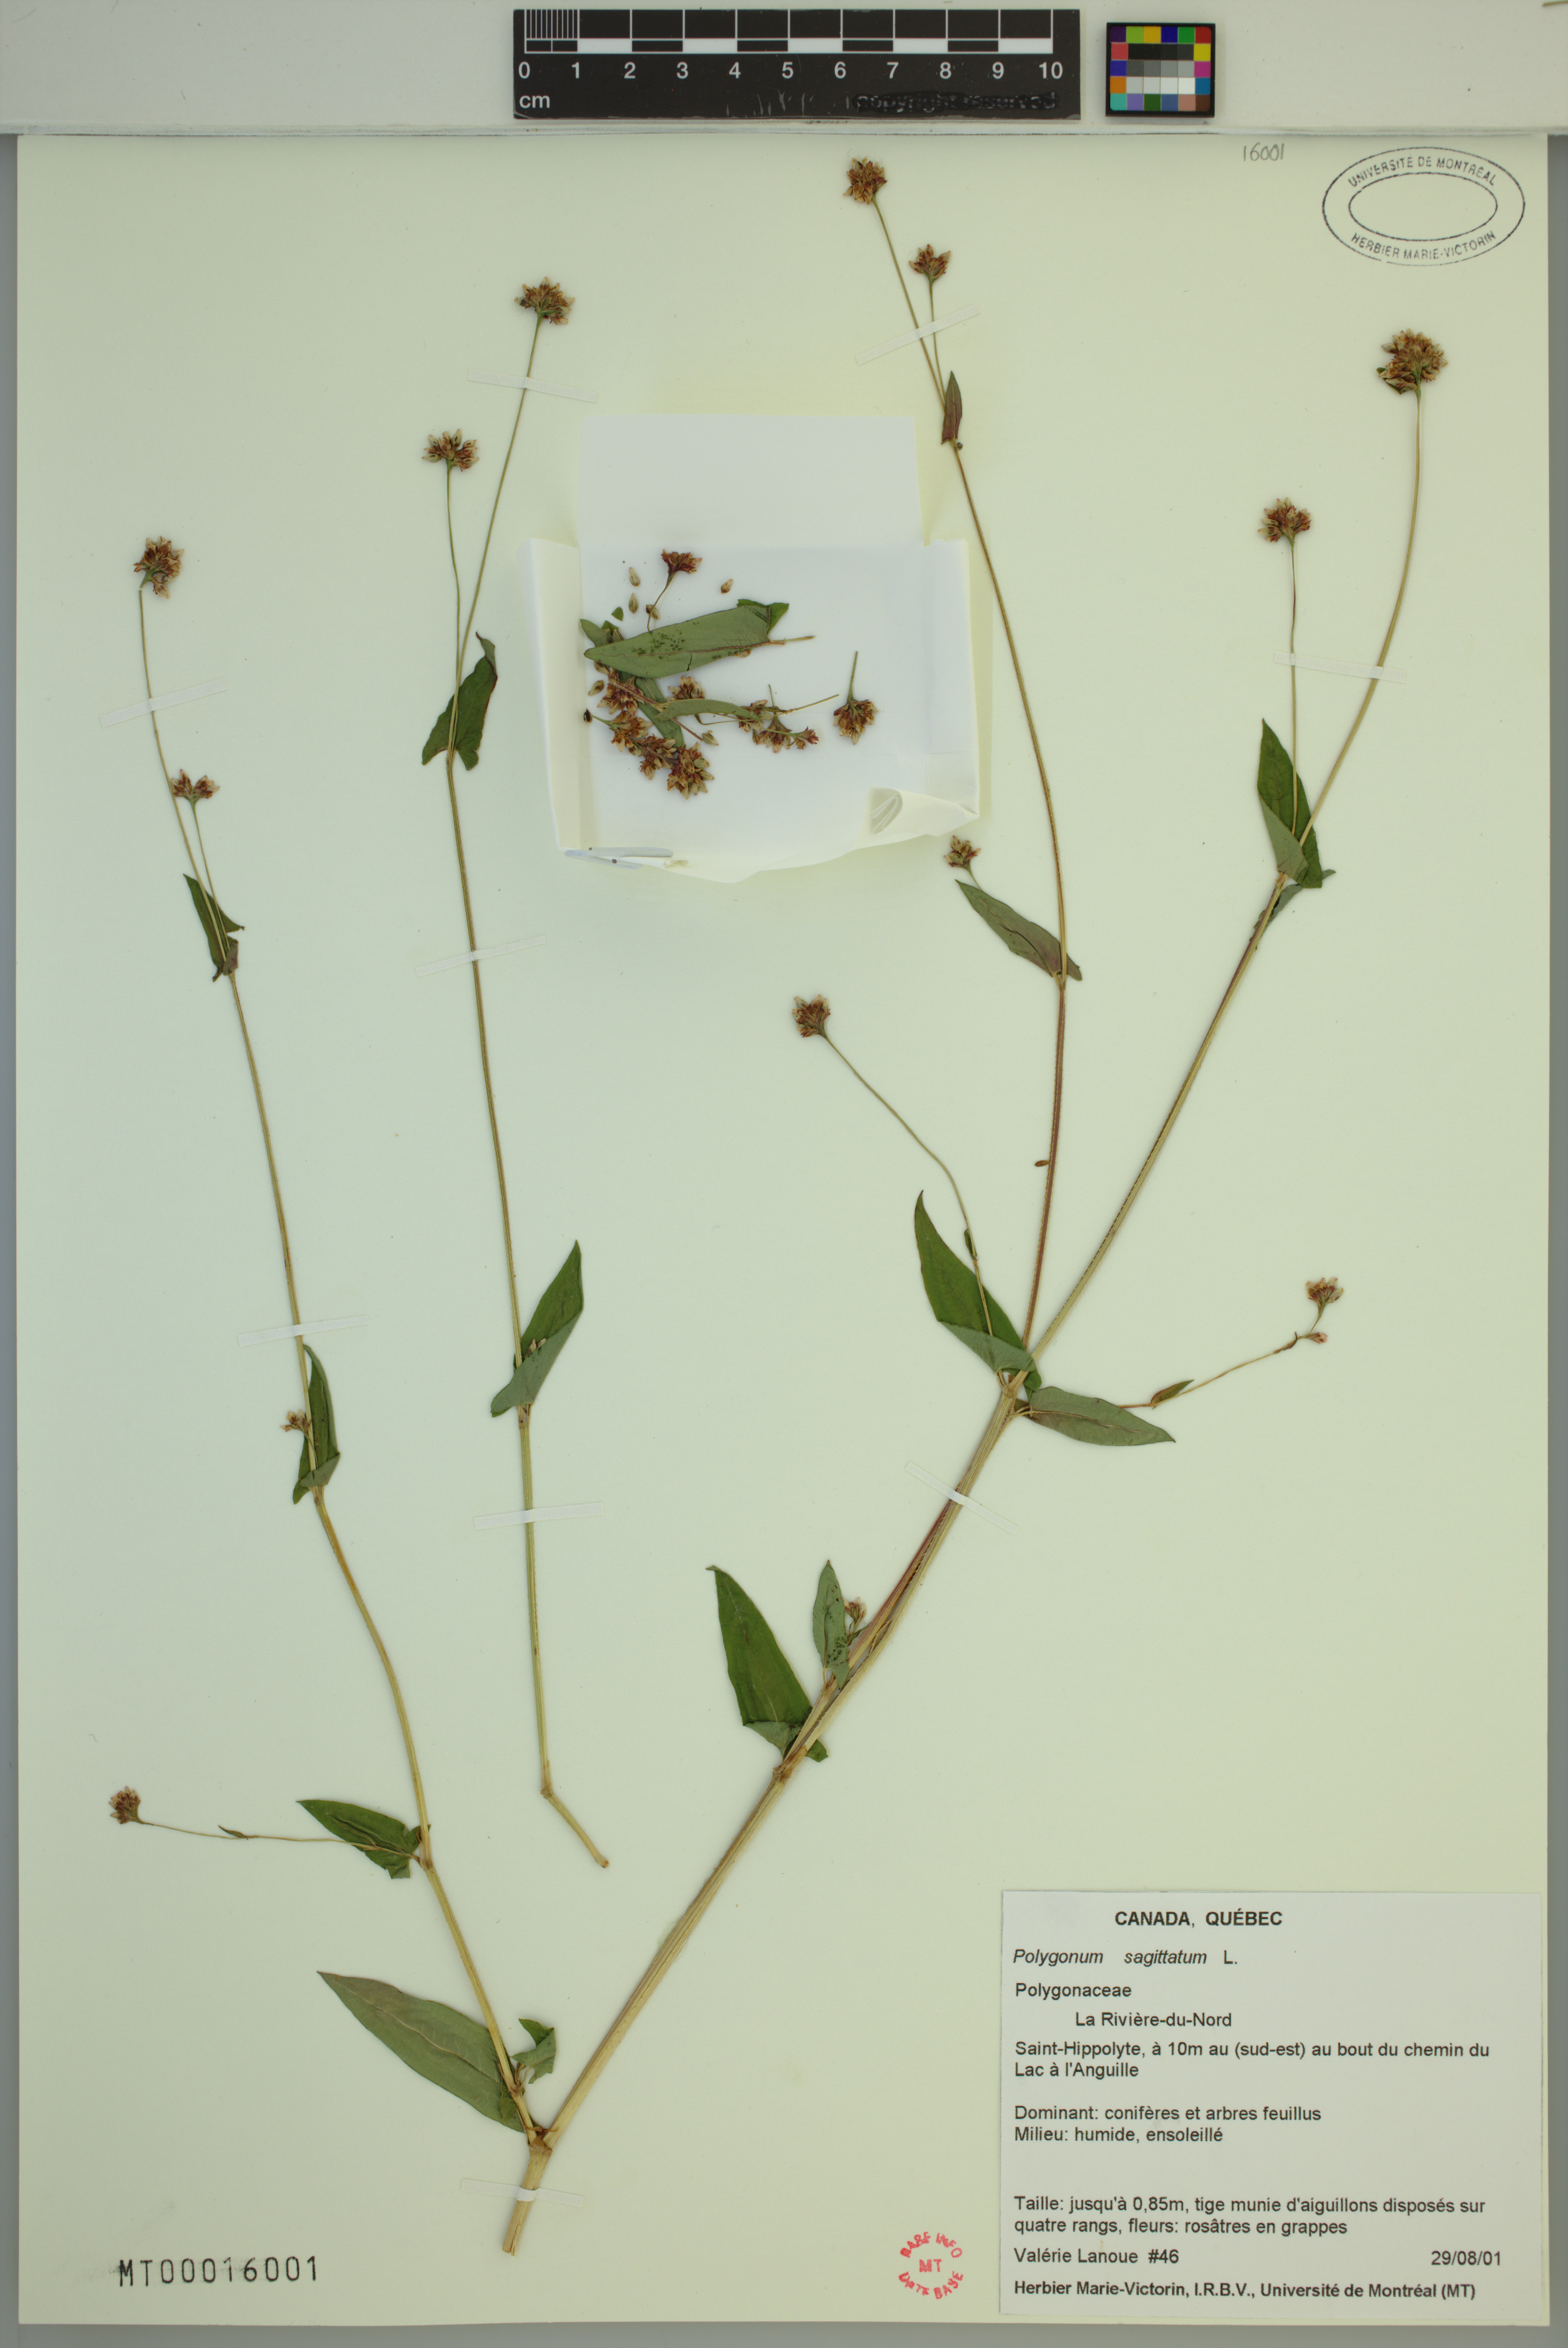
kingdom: Plantae
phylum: Tracheophyta
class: Magnoliopsida
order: Caryophyllales
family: Polygonaceae
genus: Persicaria
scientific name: Persicaria sagittata
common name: American tearthumb
